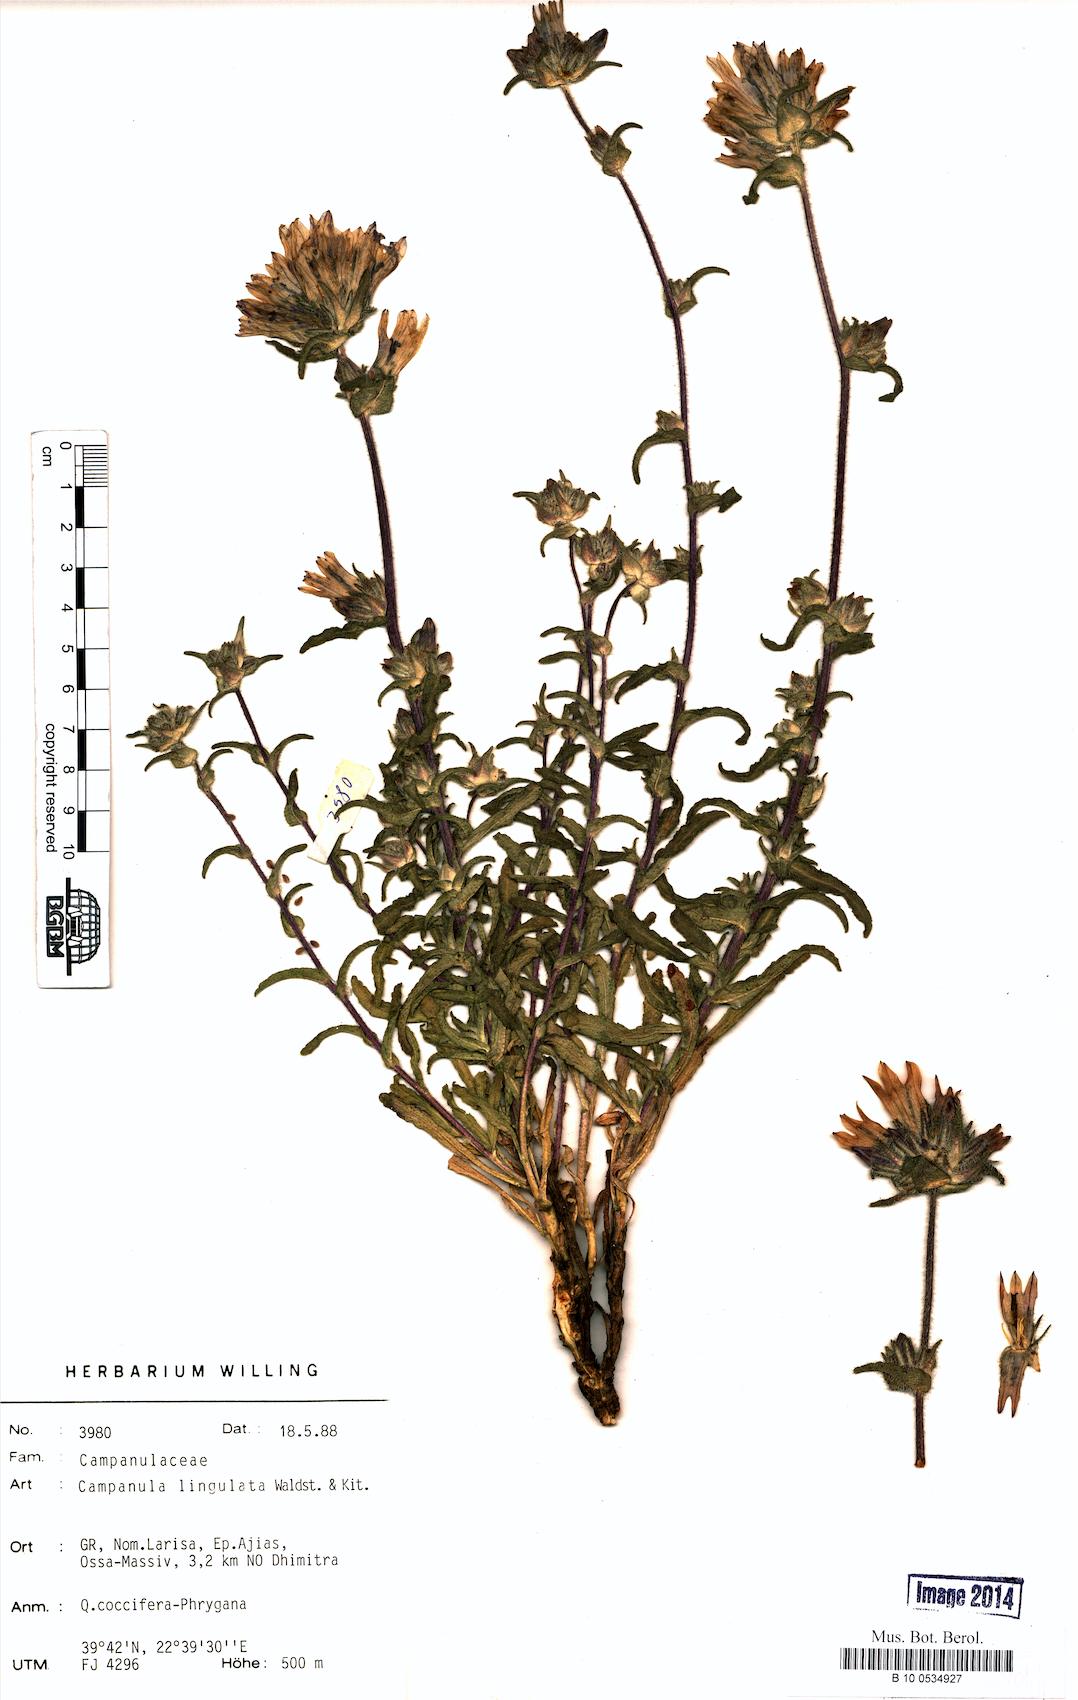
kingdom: Plantae
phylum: Tracheophyta
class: Magnoliopsida
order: Asterales
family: Campanulaceae
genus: Campanula
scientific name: Campanula lingulata
